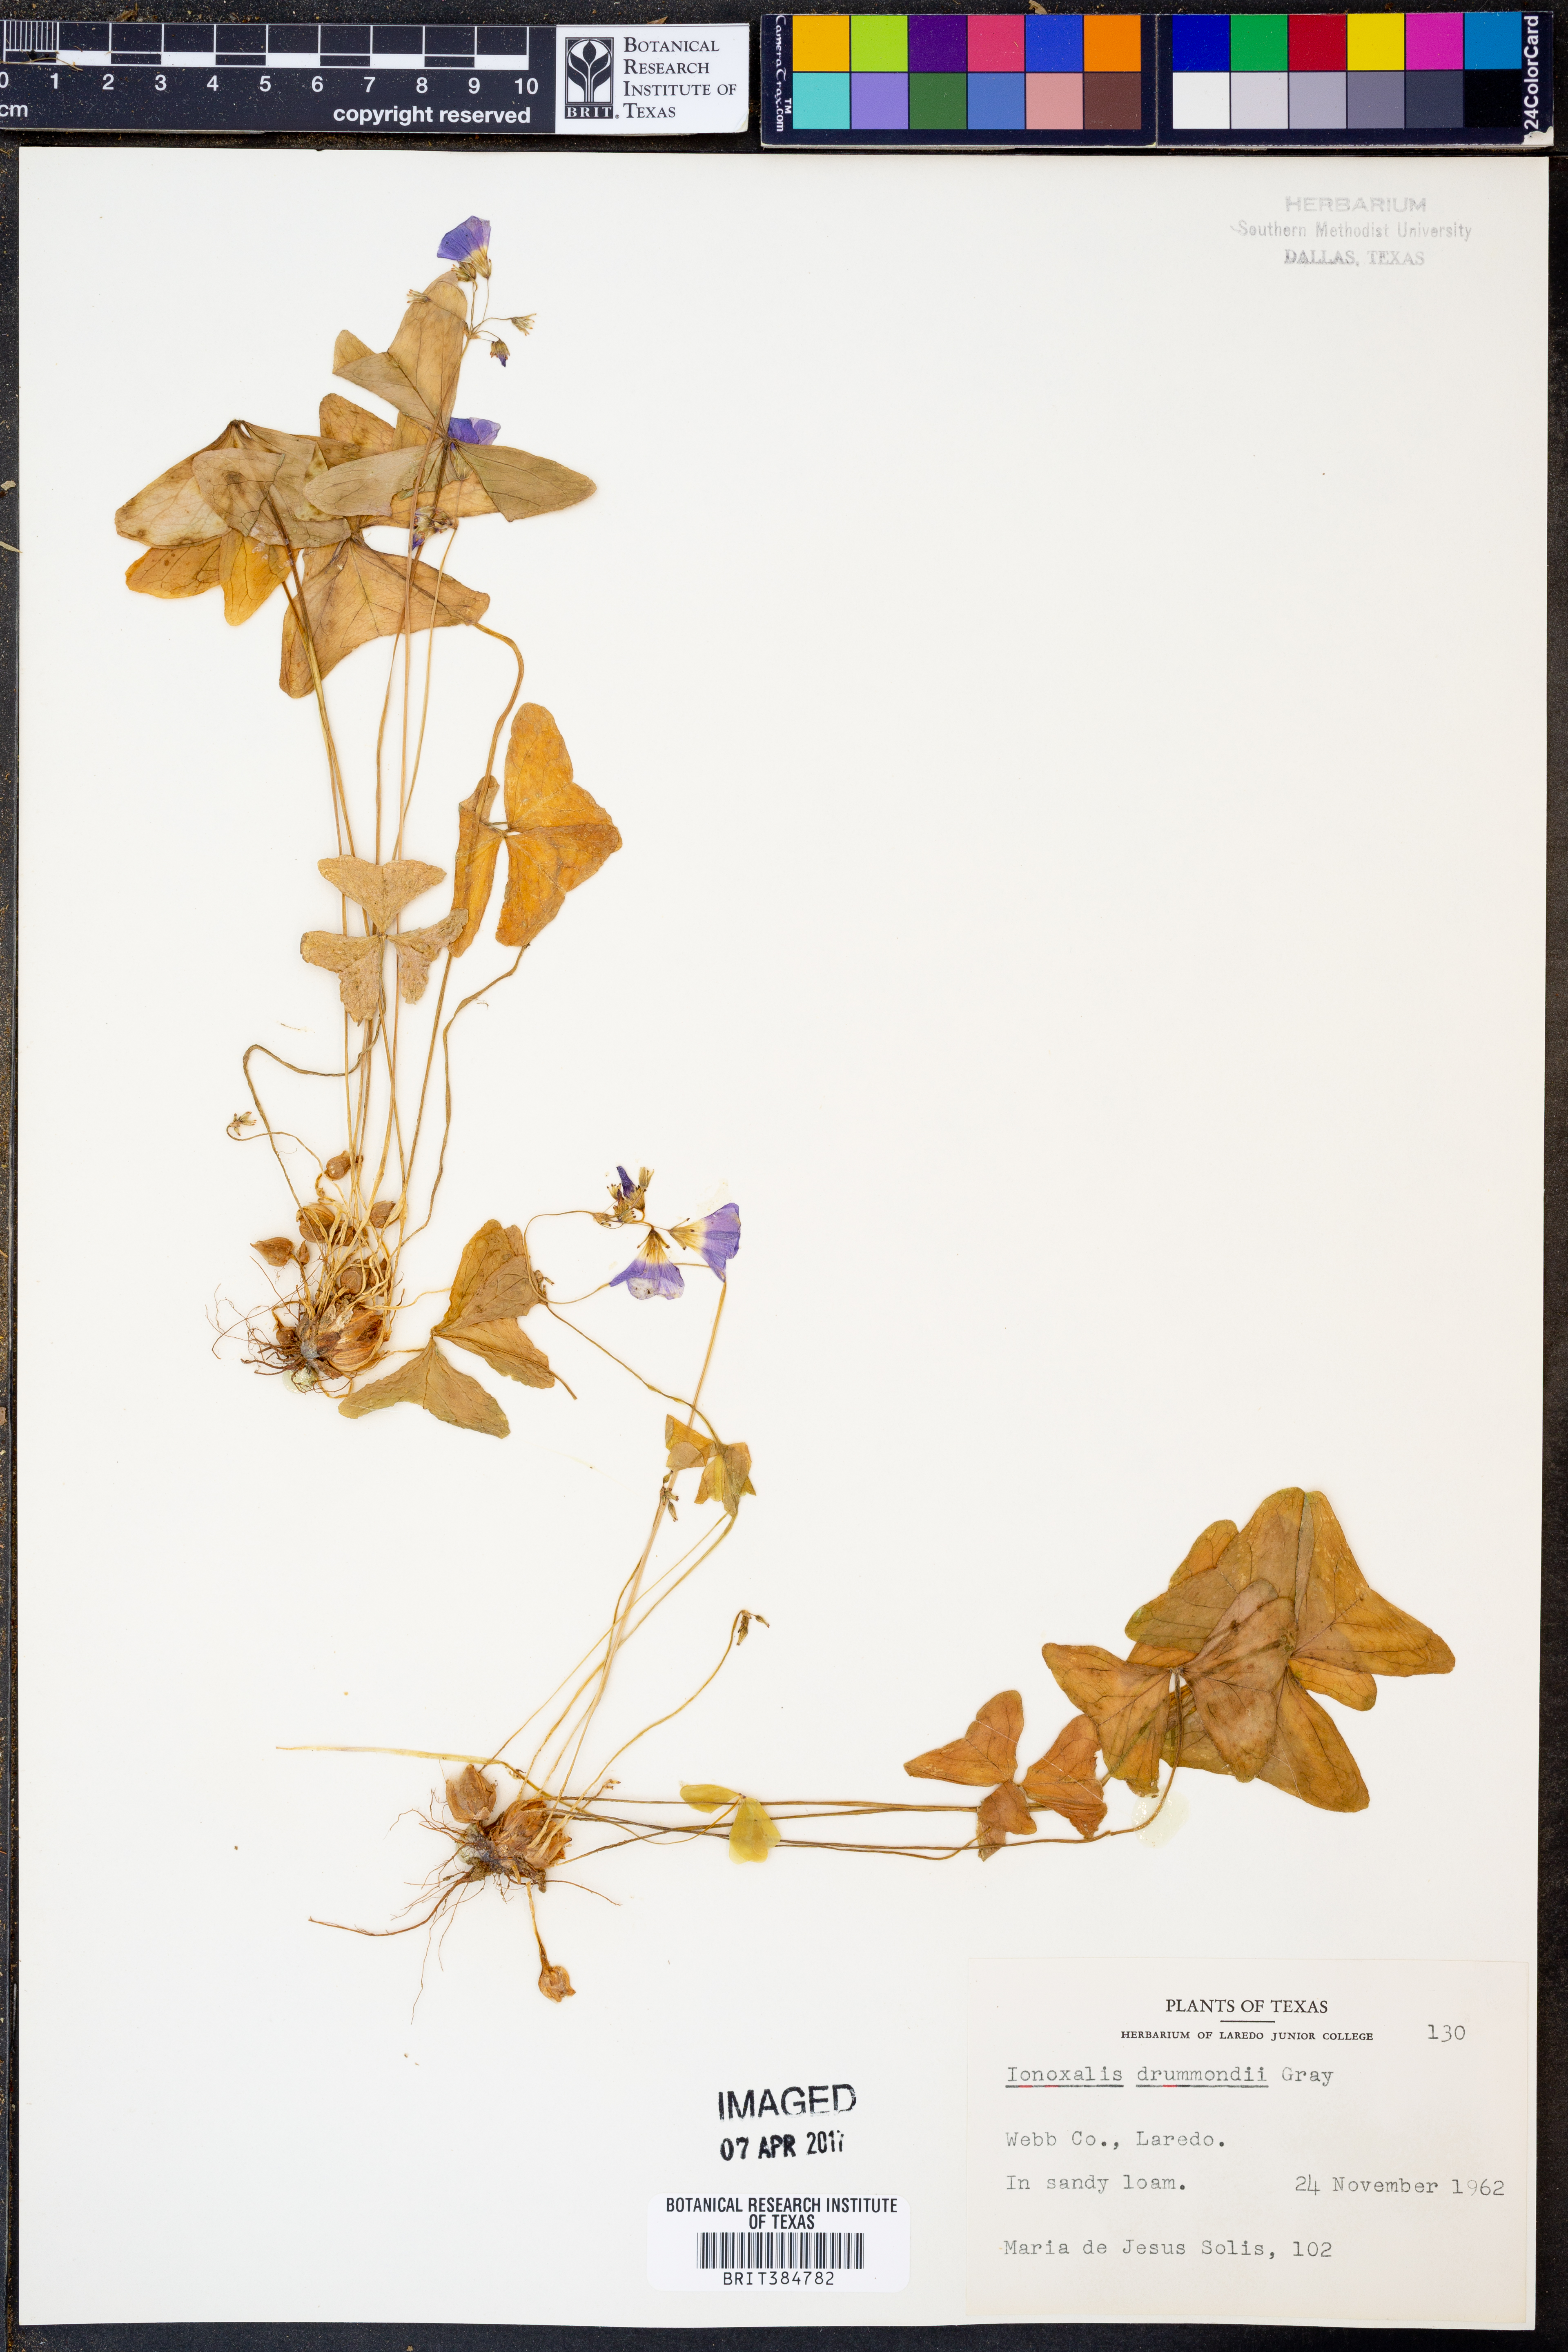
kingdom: Plantae
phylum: Tracheophyta
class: Magnoliopsida
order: Oxalidales
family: Oxalidaceae
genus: Oxalis
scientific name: Oxalis drummondii
